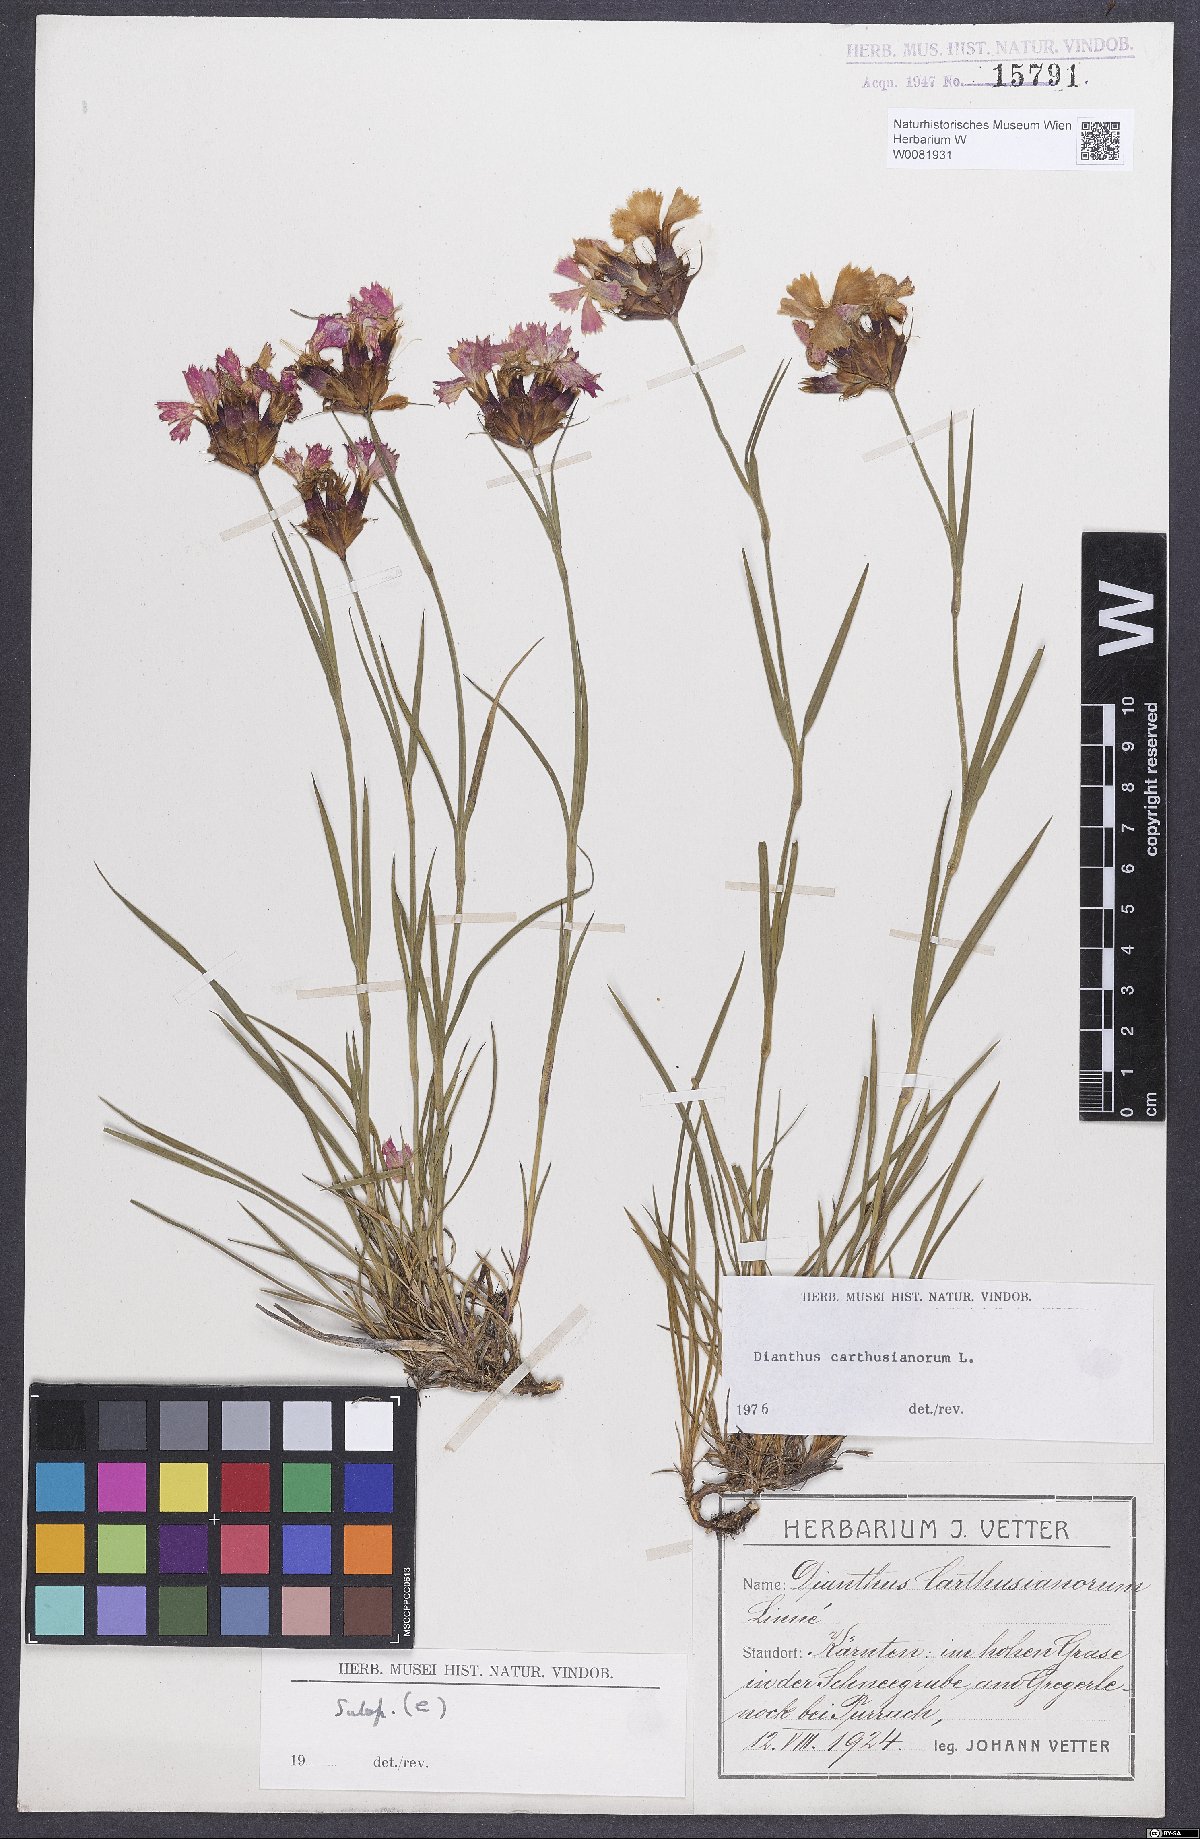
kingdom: Plantae
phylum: Tracheophyta
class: Magnoliopsida
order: Caryophyllales
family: Caryophyllaceae
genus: Dianthus
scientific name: Dianthus carthusianorum
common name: Carthusian pink
